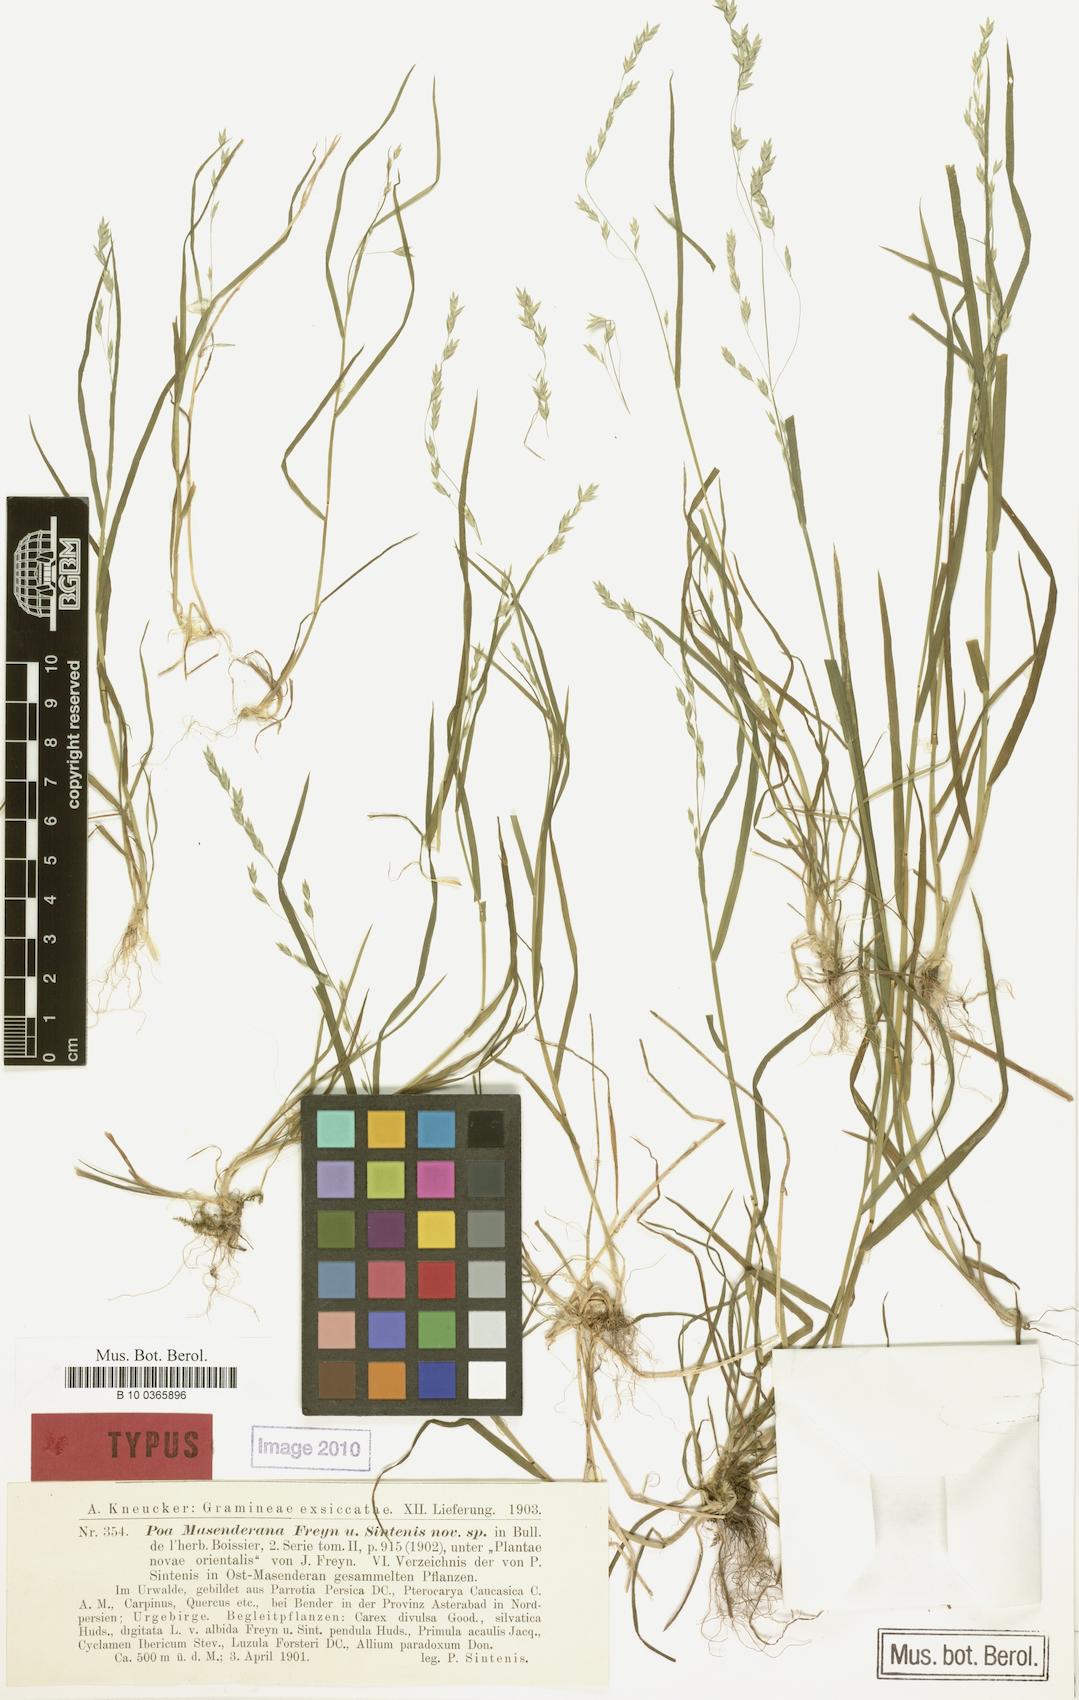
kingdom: Plantae
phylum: Tracheophyta
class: Liliopsida
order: Poales
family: Poaceae
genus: Poa
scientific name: Poa masenderana
